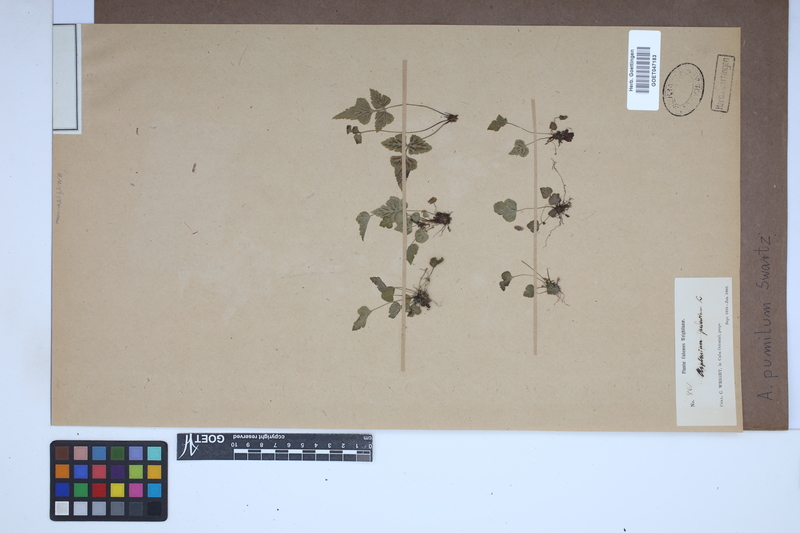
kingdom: Plantae
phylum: Tracheophyta
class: Polypodiopsida
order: Polypodiales
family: Aspleniaceae
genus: Asplenium
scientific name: Asplenium pumilum
